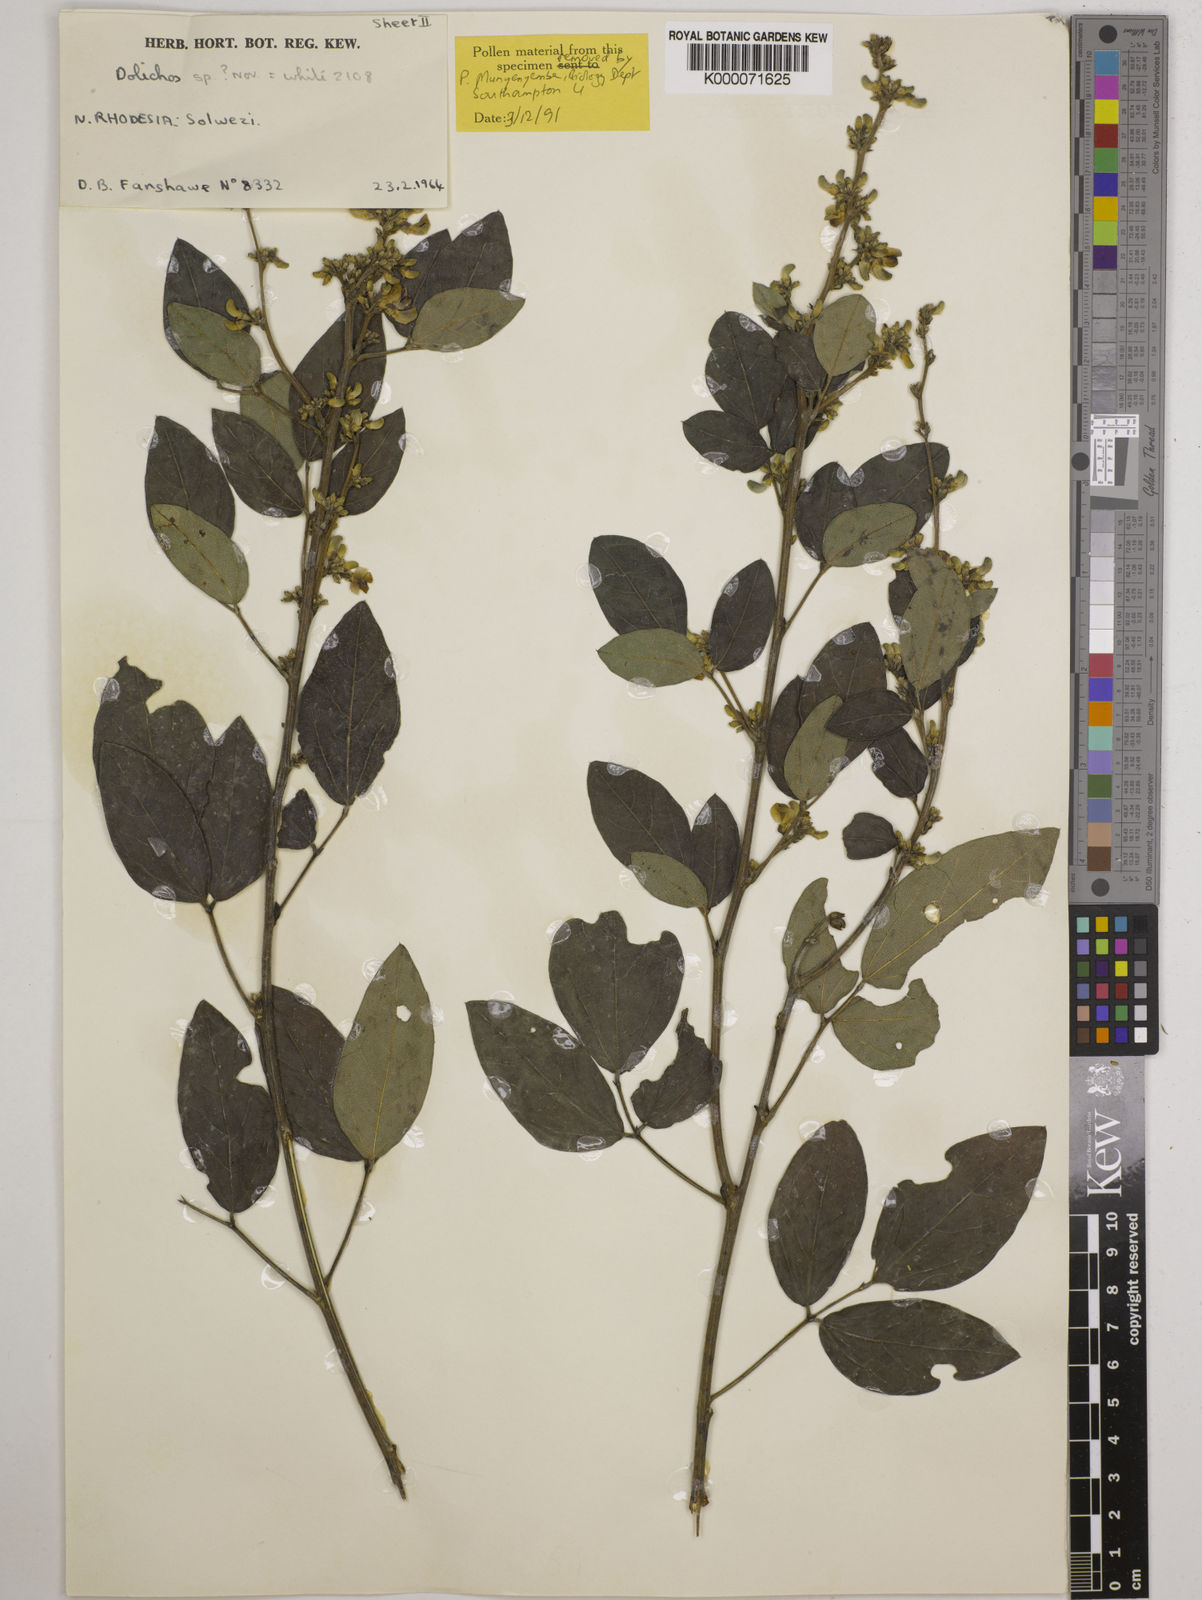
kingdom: Plantae
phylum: Tracheophyta
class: Magnoliopsida
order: Fabales
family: Fabaceae
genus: Dolichos
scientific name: Dolichos brevidentatus
